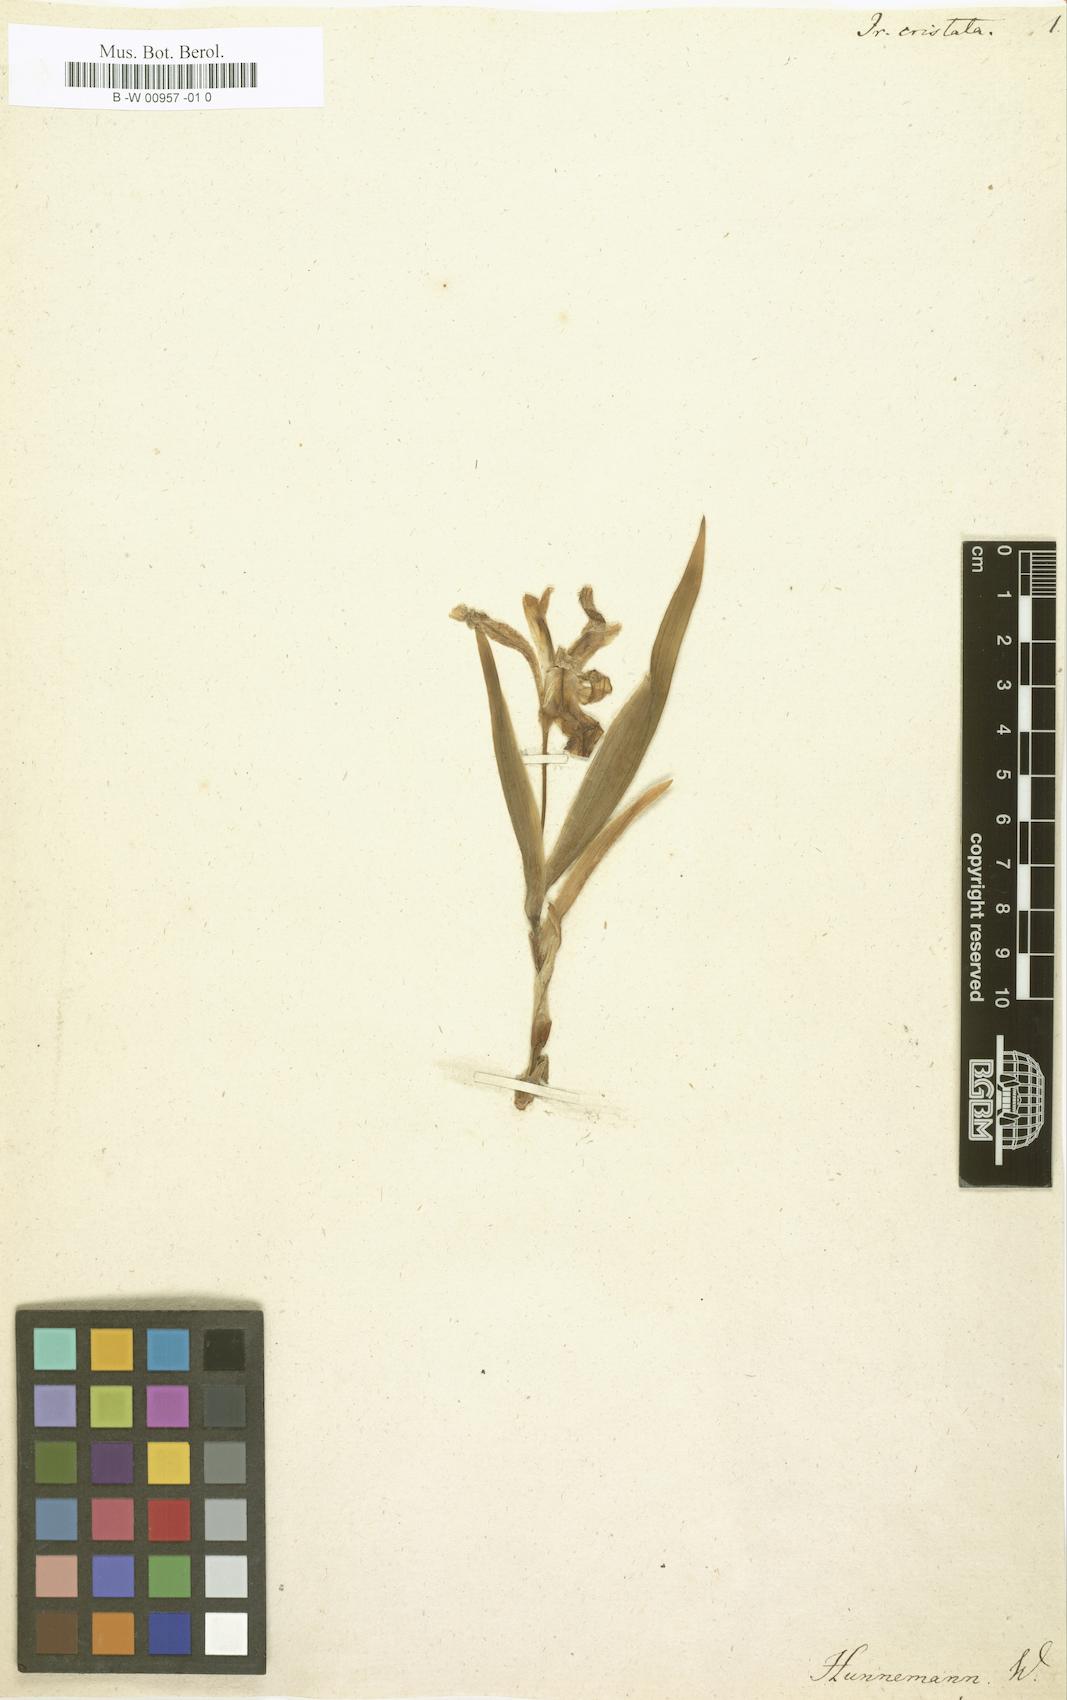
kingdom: Plantae
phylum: Tracheophyta
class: Liliopsida
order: Asparagales
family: Iridaceae
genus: Iris
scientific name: Iris cristata
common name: Crested iris
